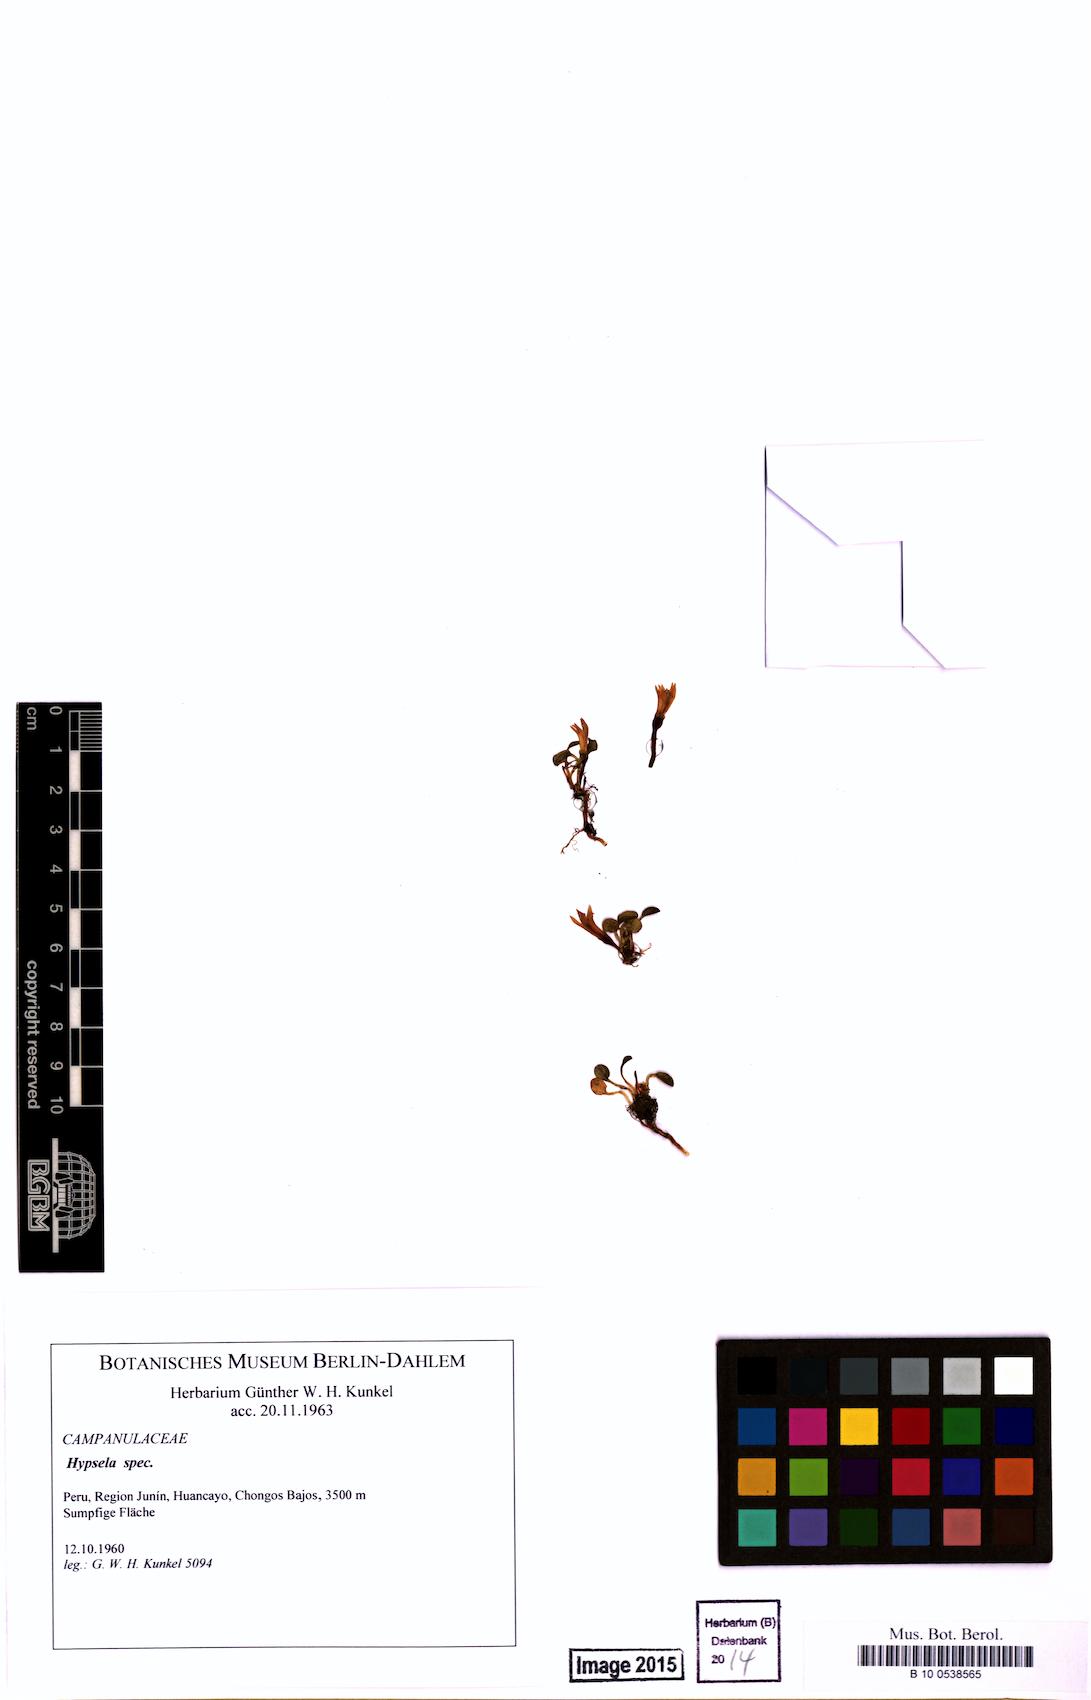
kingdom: Plantae
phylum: Tracheophyta
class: Magnoliopsida
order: Asterales
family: Campanulaceae
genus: Hypsela
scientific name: Hypsela
